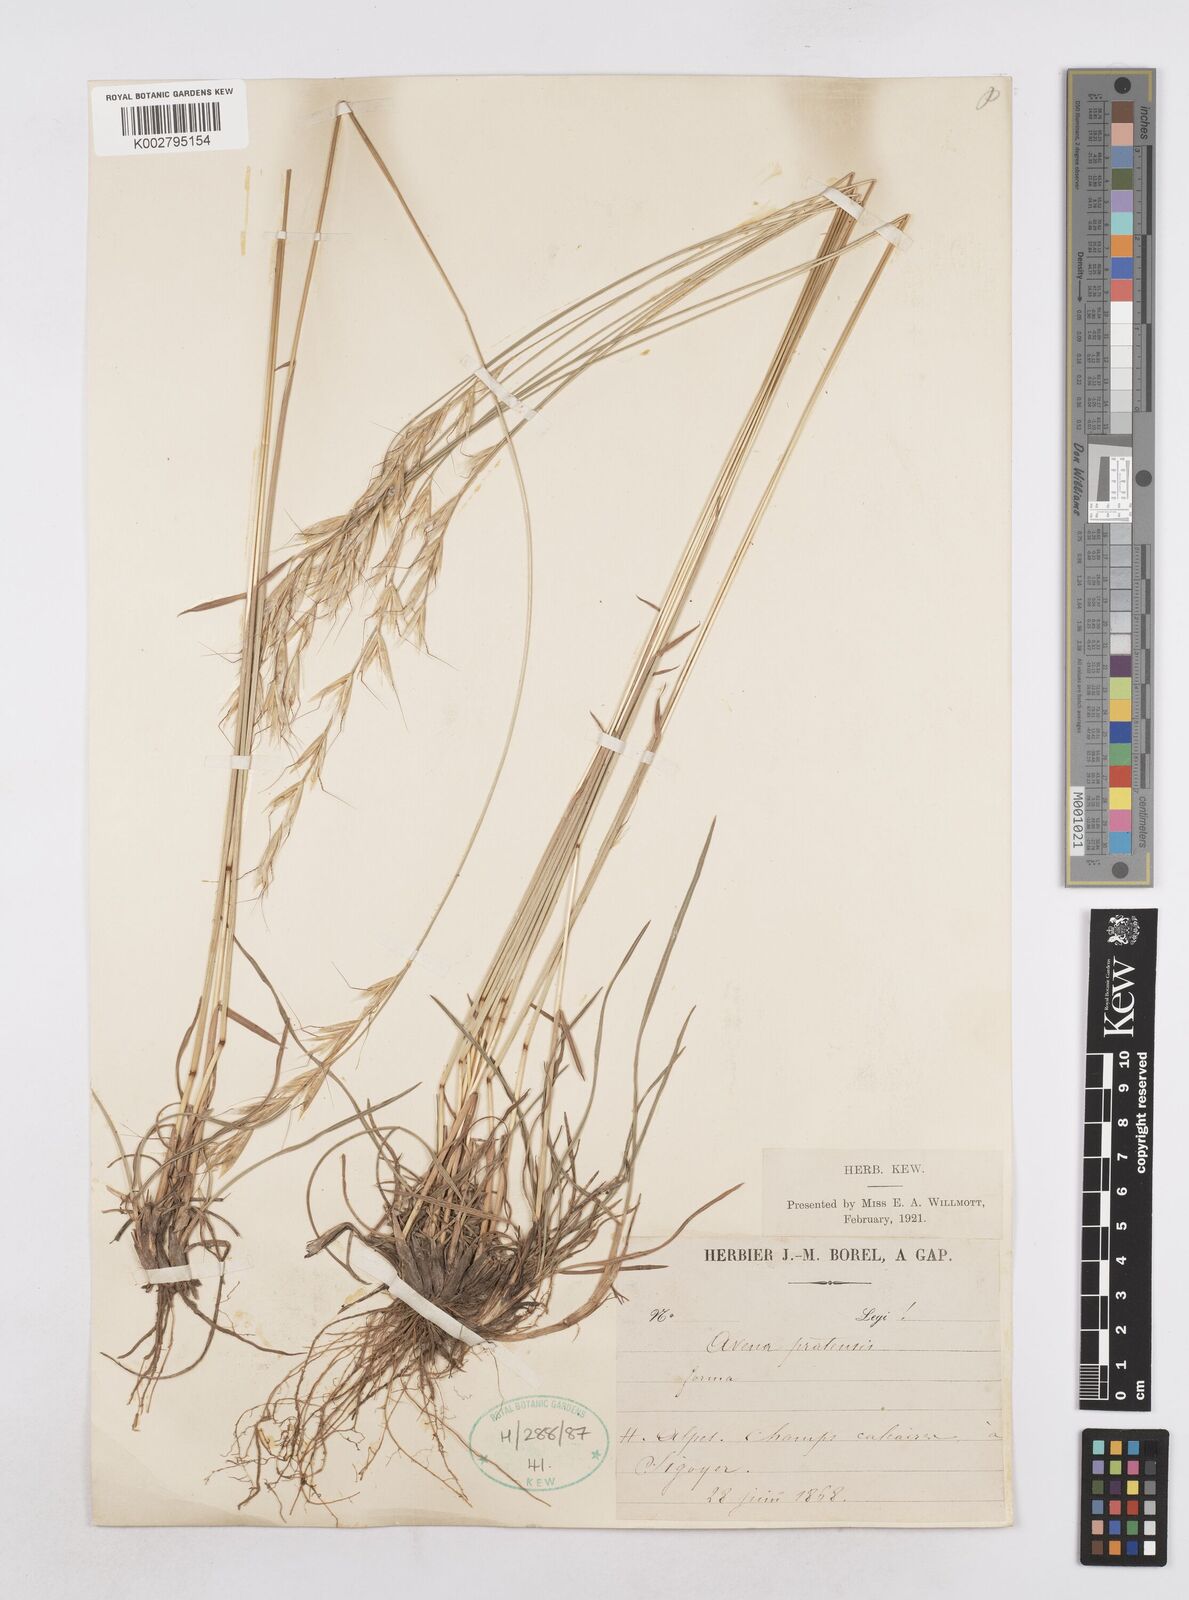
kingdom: Plantae
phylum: Tracheophyta
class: Liliopsida
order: Poales
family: Poaceae
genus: Helictochloa
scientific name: Helictochloa pratensis
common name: Meadow oat grass
